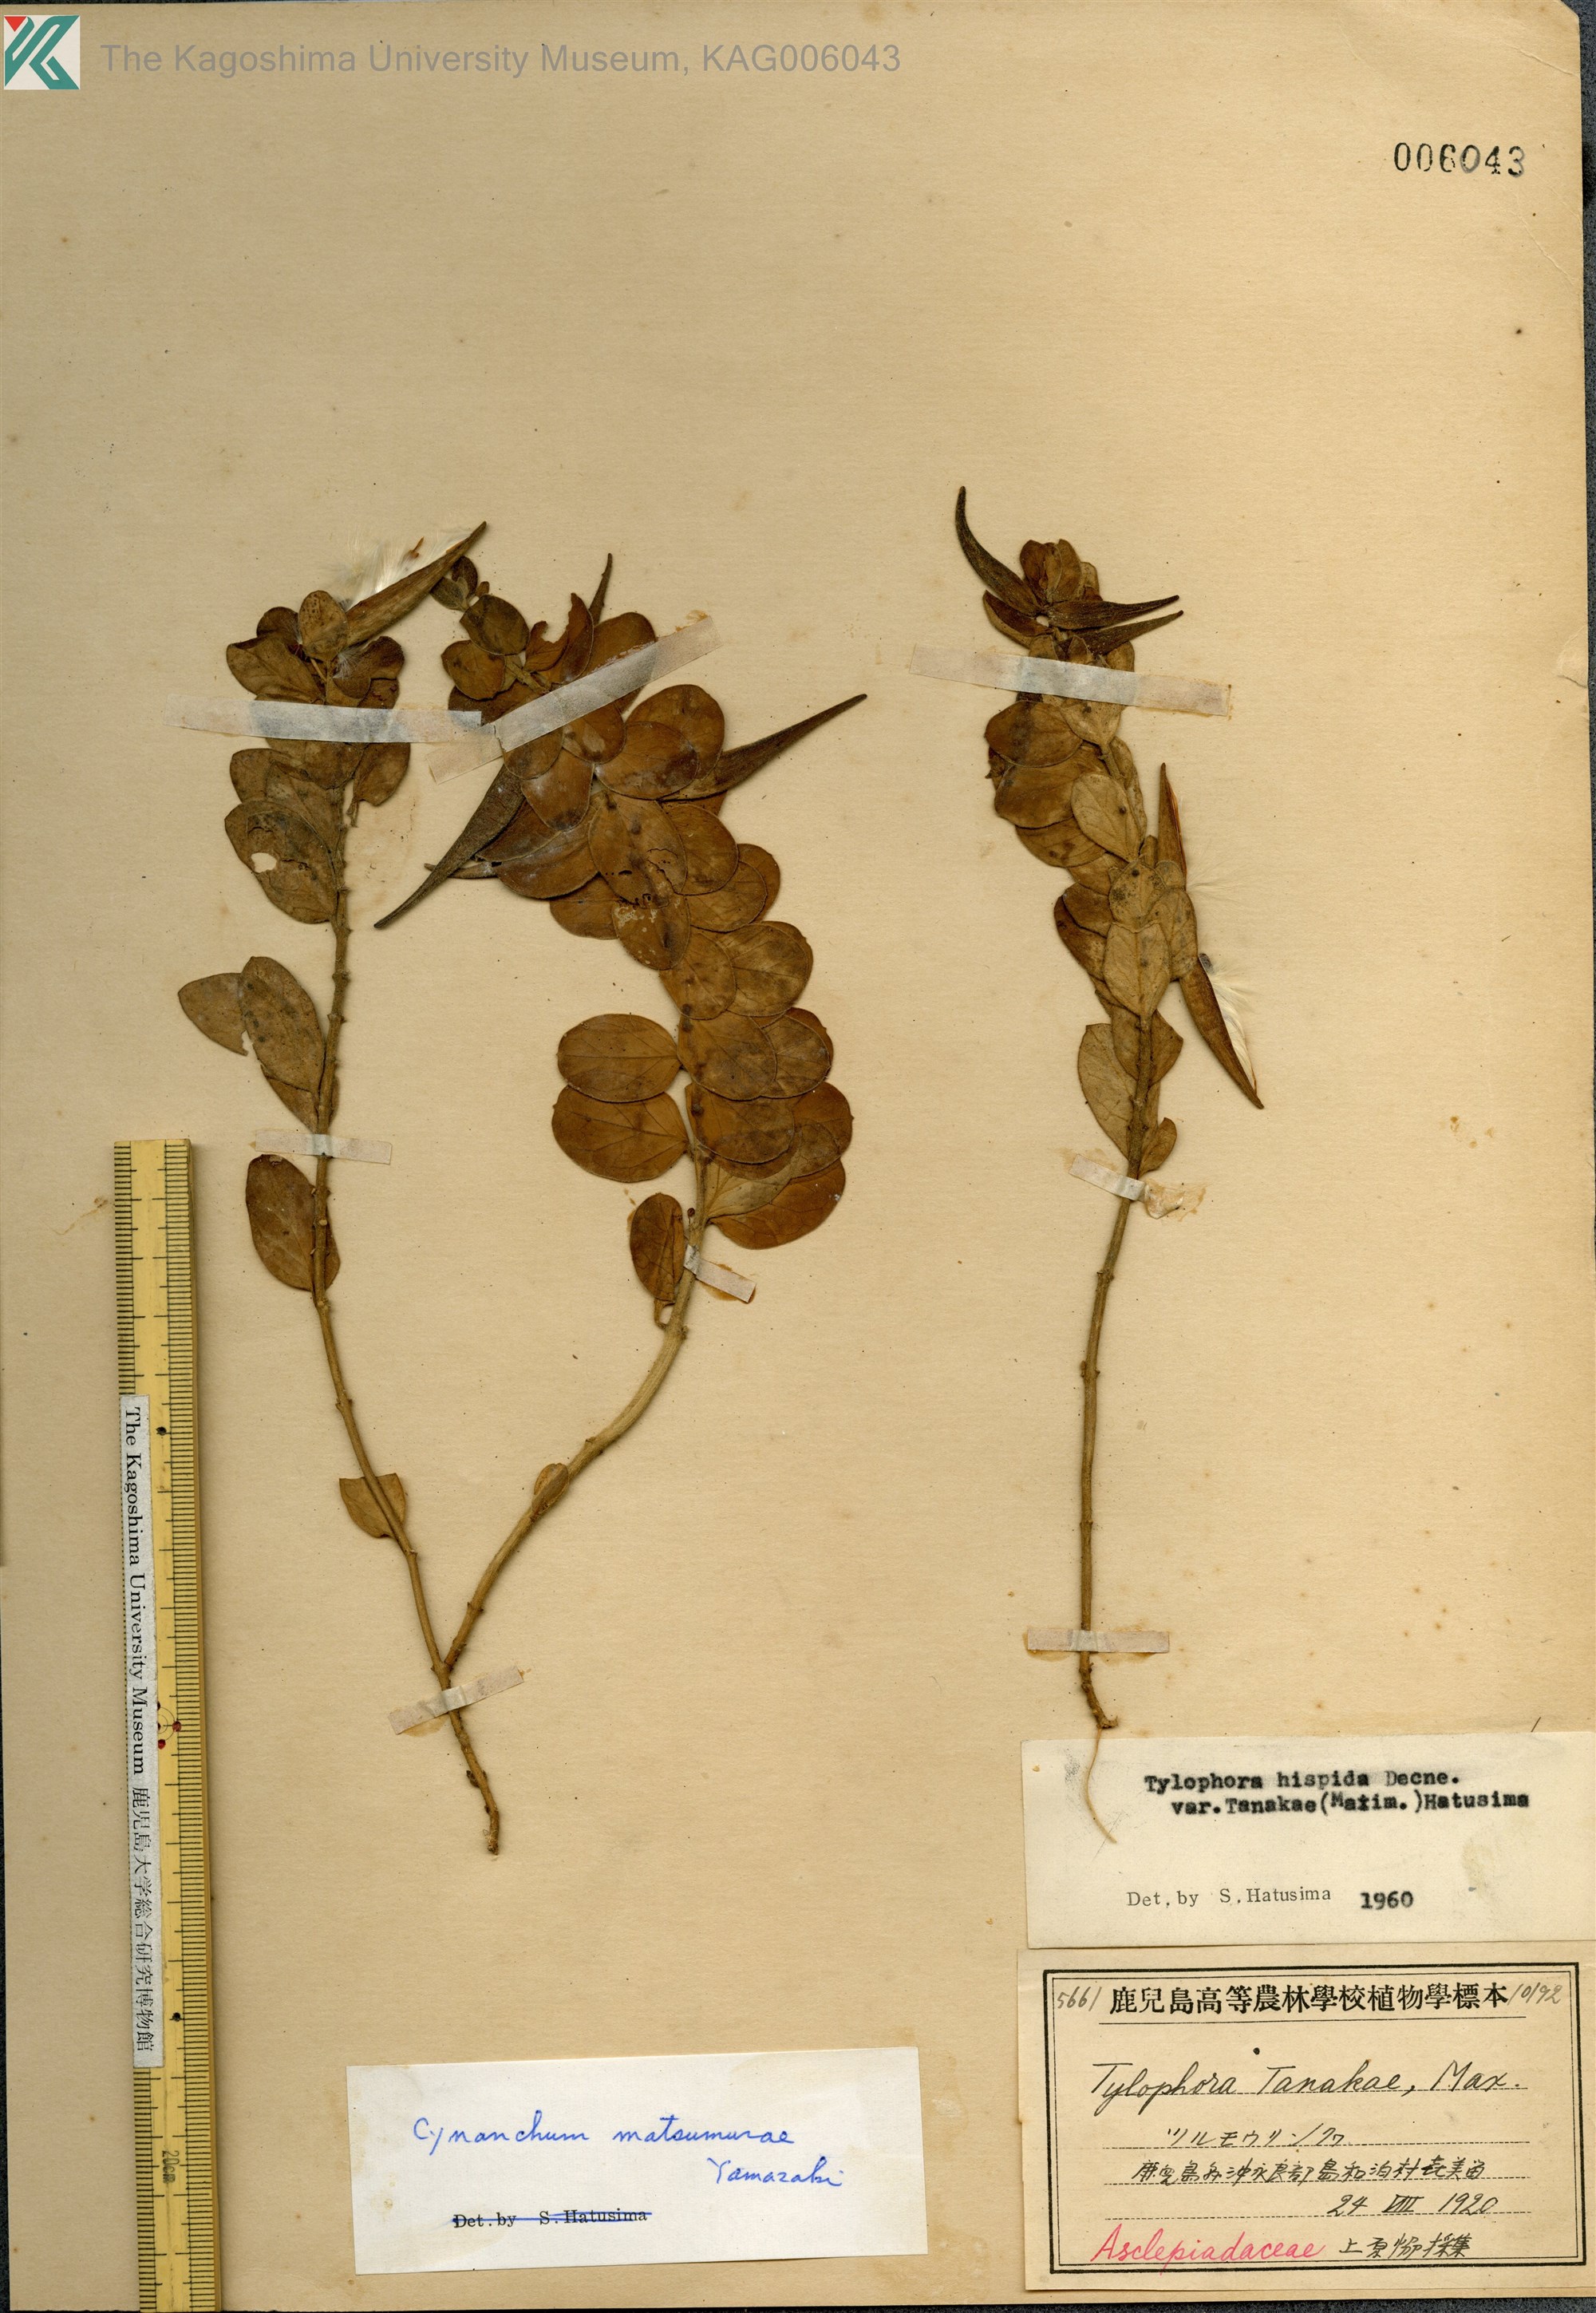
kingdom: Plantae
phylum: Tracheophyta
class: Magnoliopsida
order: Gentianales
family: Apocynaceae
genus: Vincetoxicum
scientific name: Vincetoxicum matsumurae
